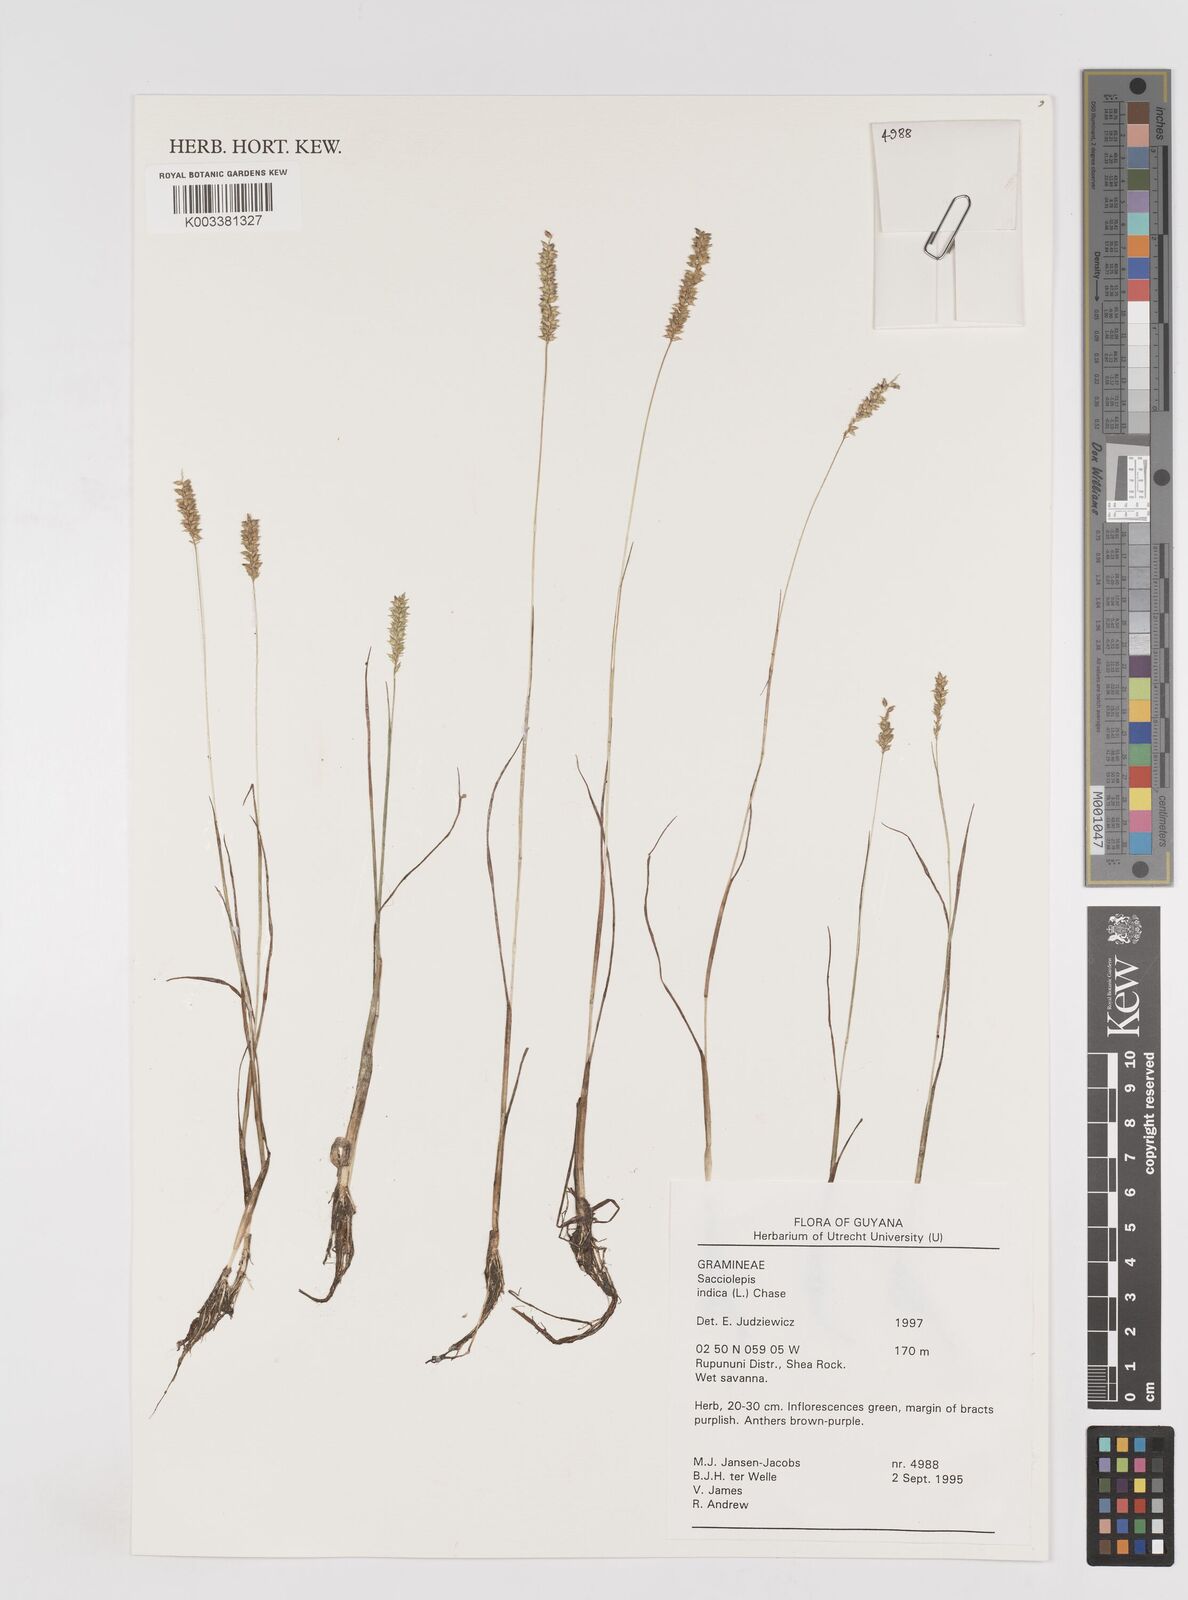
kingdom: Plantae
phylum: Tracheophyta
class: Liliopsida
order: Poales
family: Poaceae
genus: Sacciolepis
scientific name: Sacciolepis indica
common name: Glenwoodgrass
